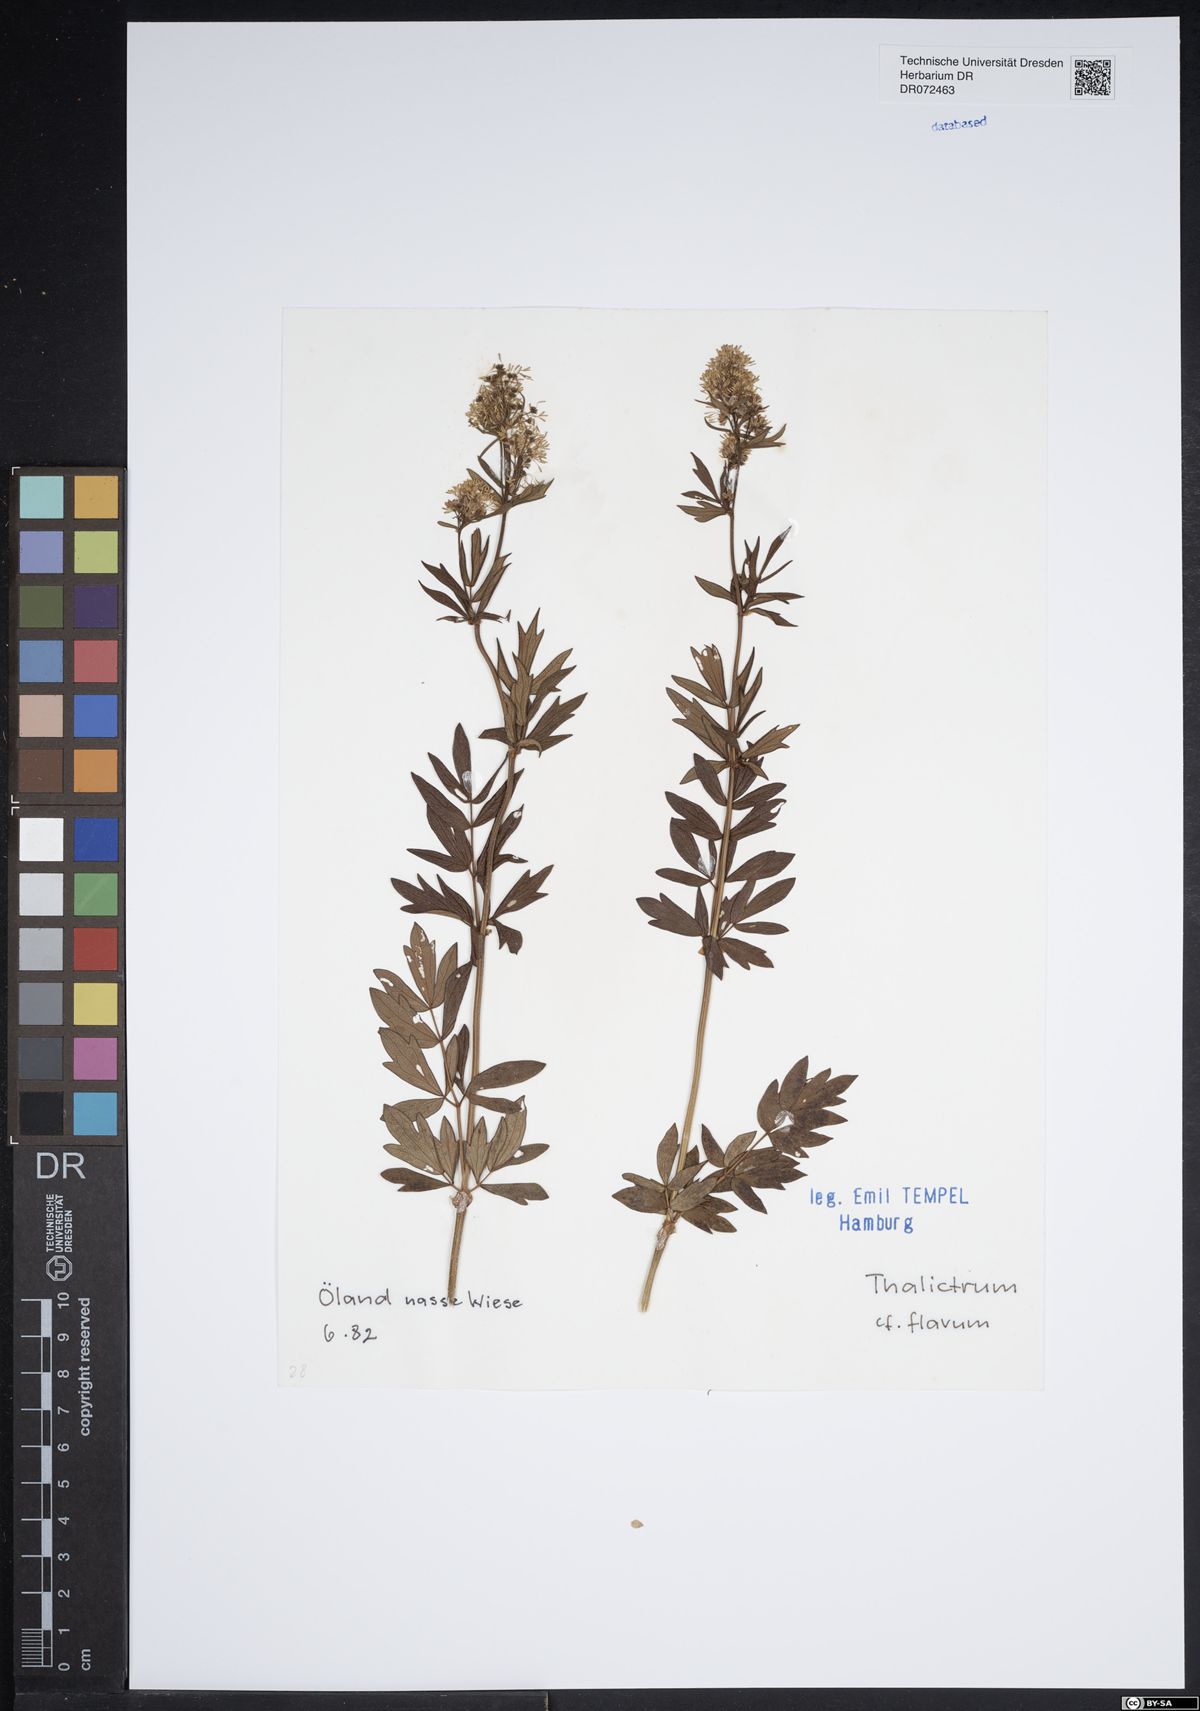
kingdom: Plantae
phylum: Tracheophyta
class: Magnoliopsida
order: Ranunculales
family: Ranunculaceae
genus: Thalictrum
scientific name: Thalictrum flavum
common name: Common meadow-rue
